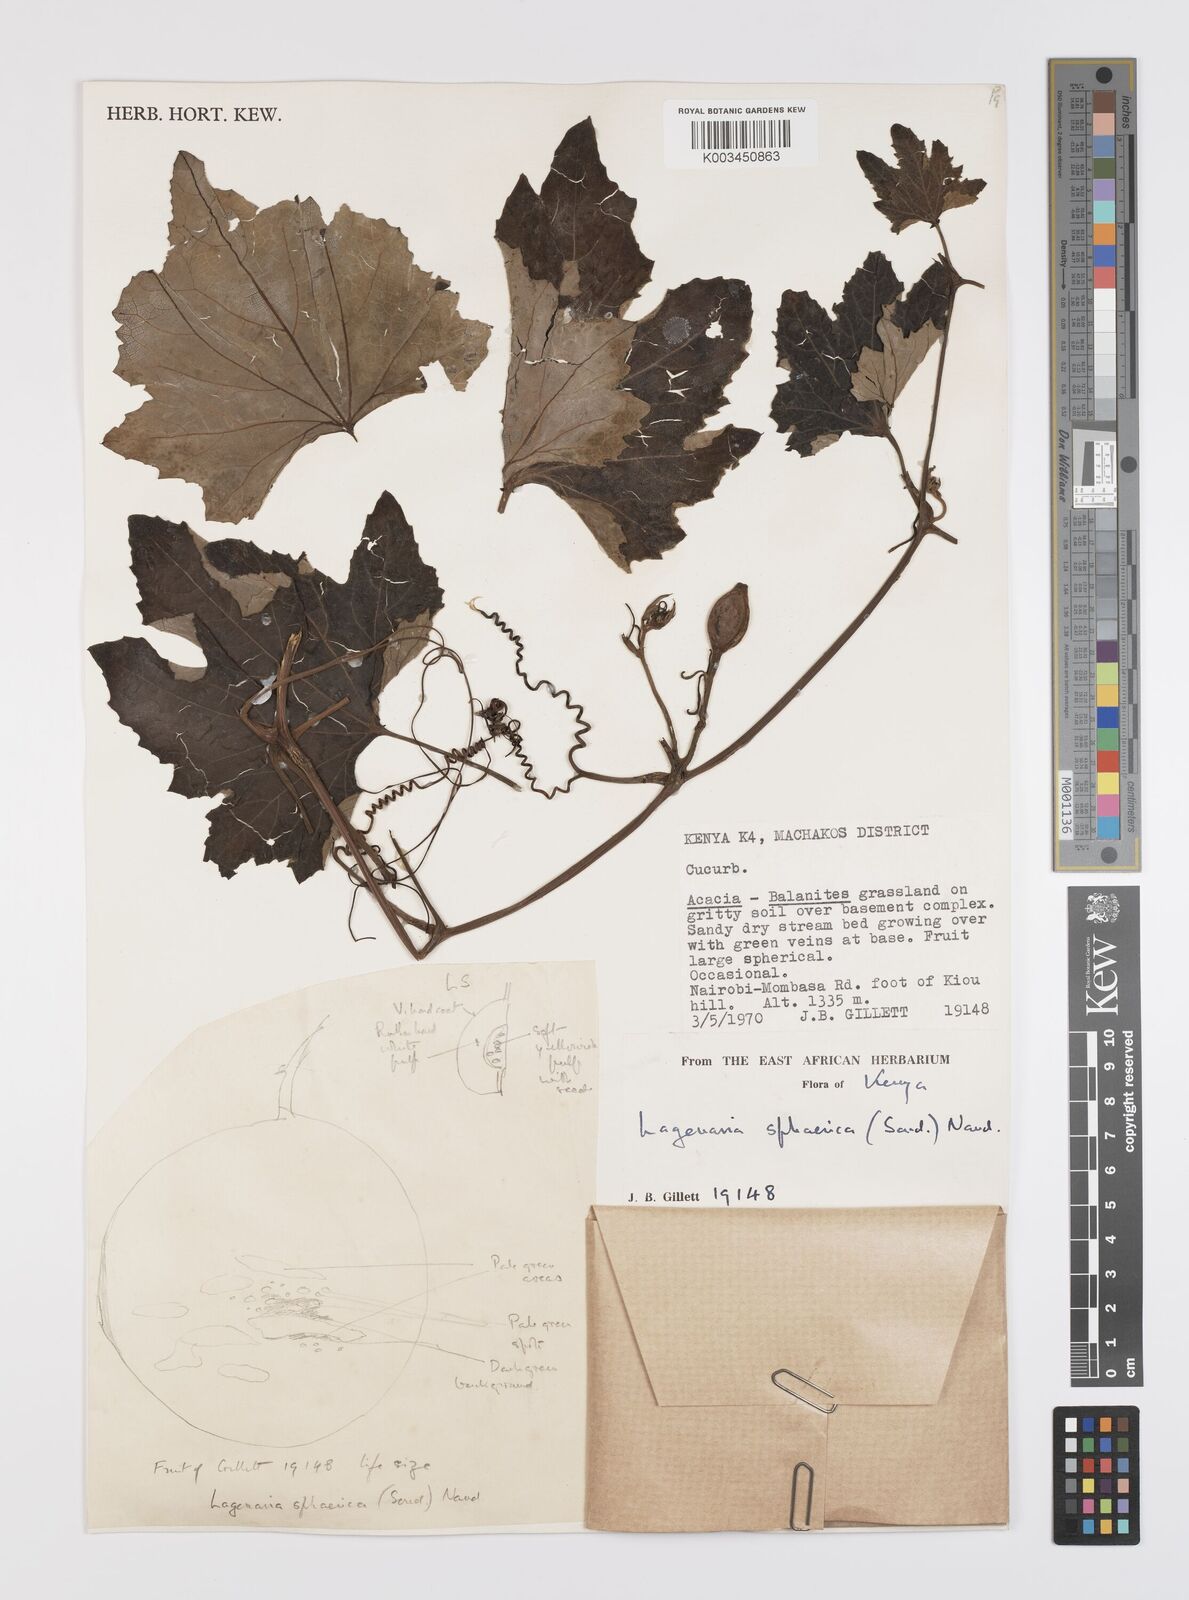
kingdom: Plantae
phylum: Tracheophyta
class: Magnoliopsida
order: Cucurbitales
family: Cucurbitaceae
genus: Lagenaria
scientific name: Lagenaria sphaerica
